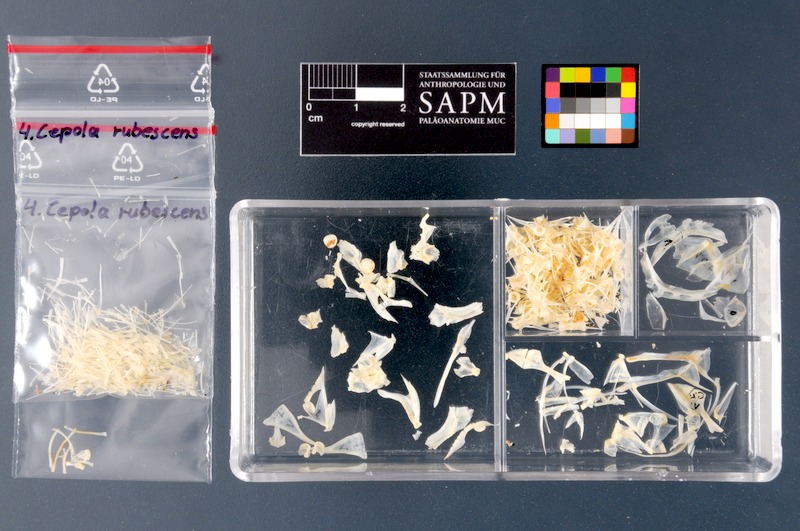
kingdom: Animalia
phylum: Chordata
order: Perciformes
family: Cepolidae
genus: Cepola
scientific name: Cepola macrophthalma
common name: Red bandfish
